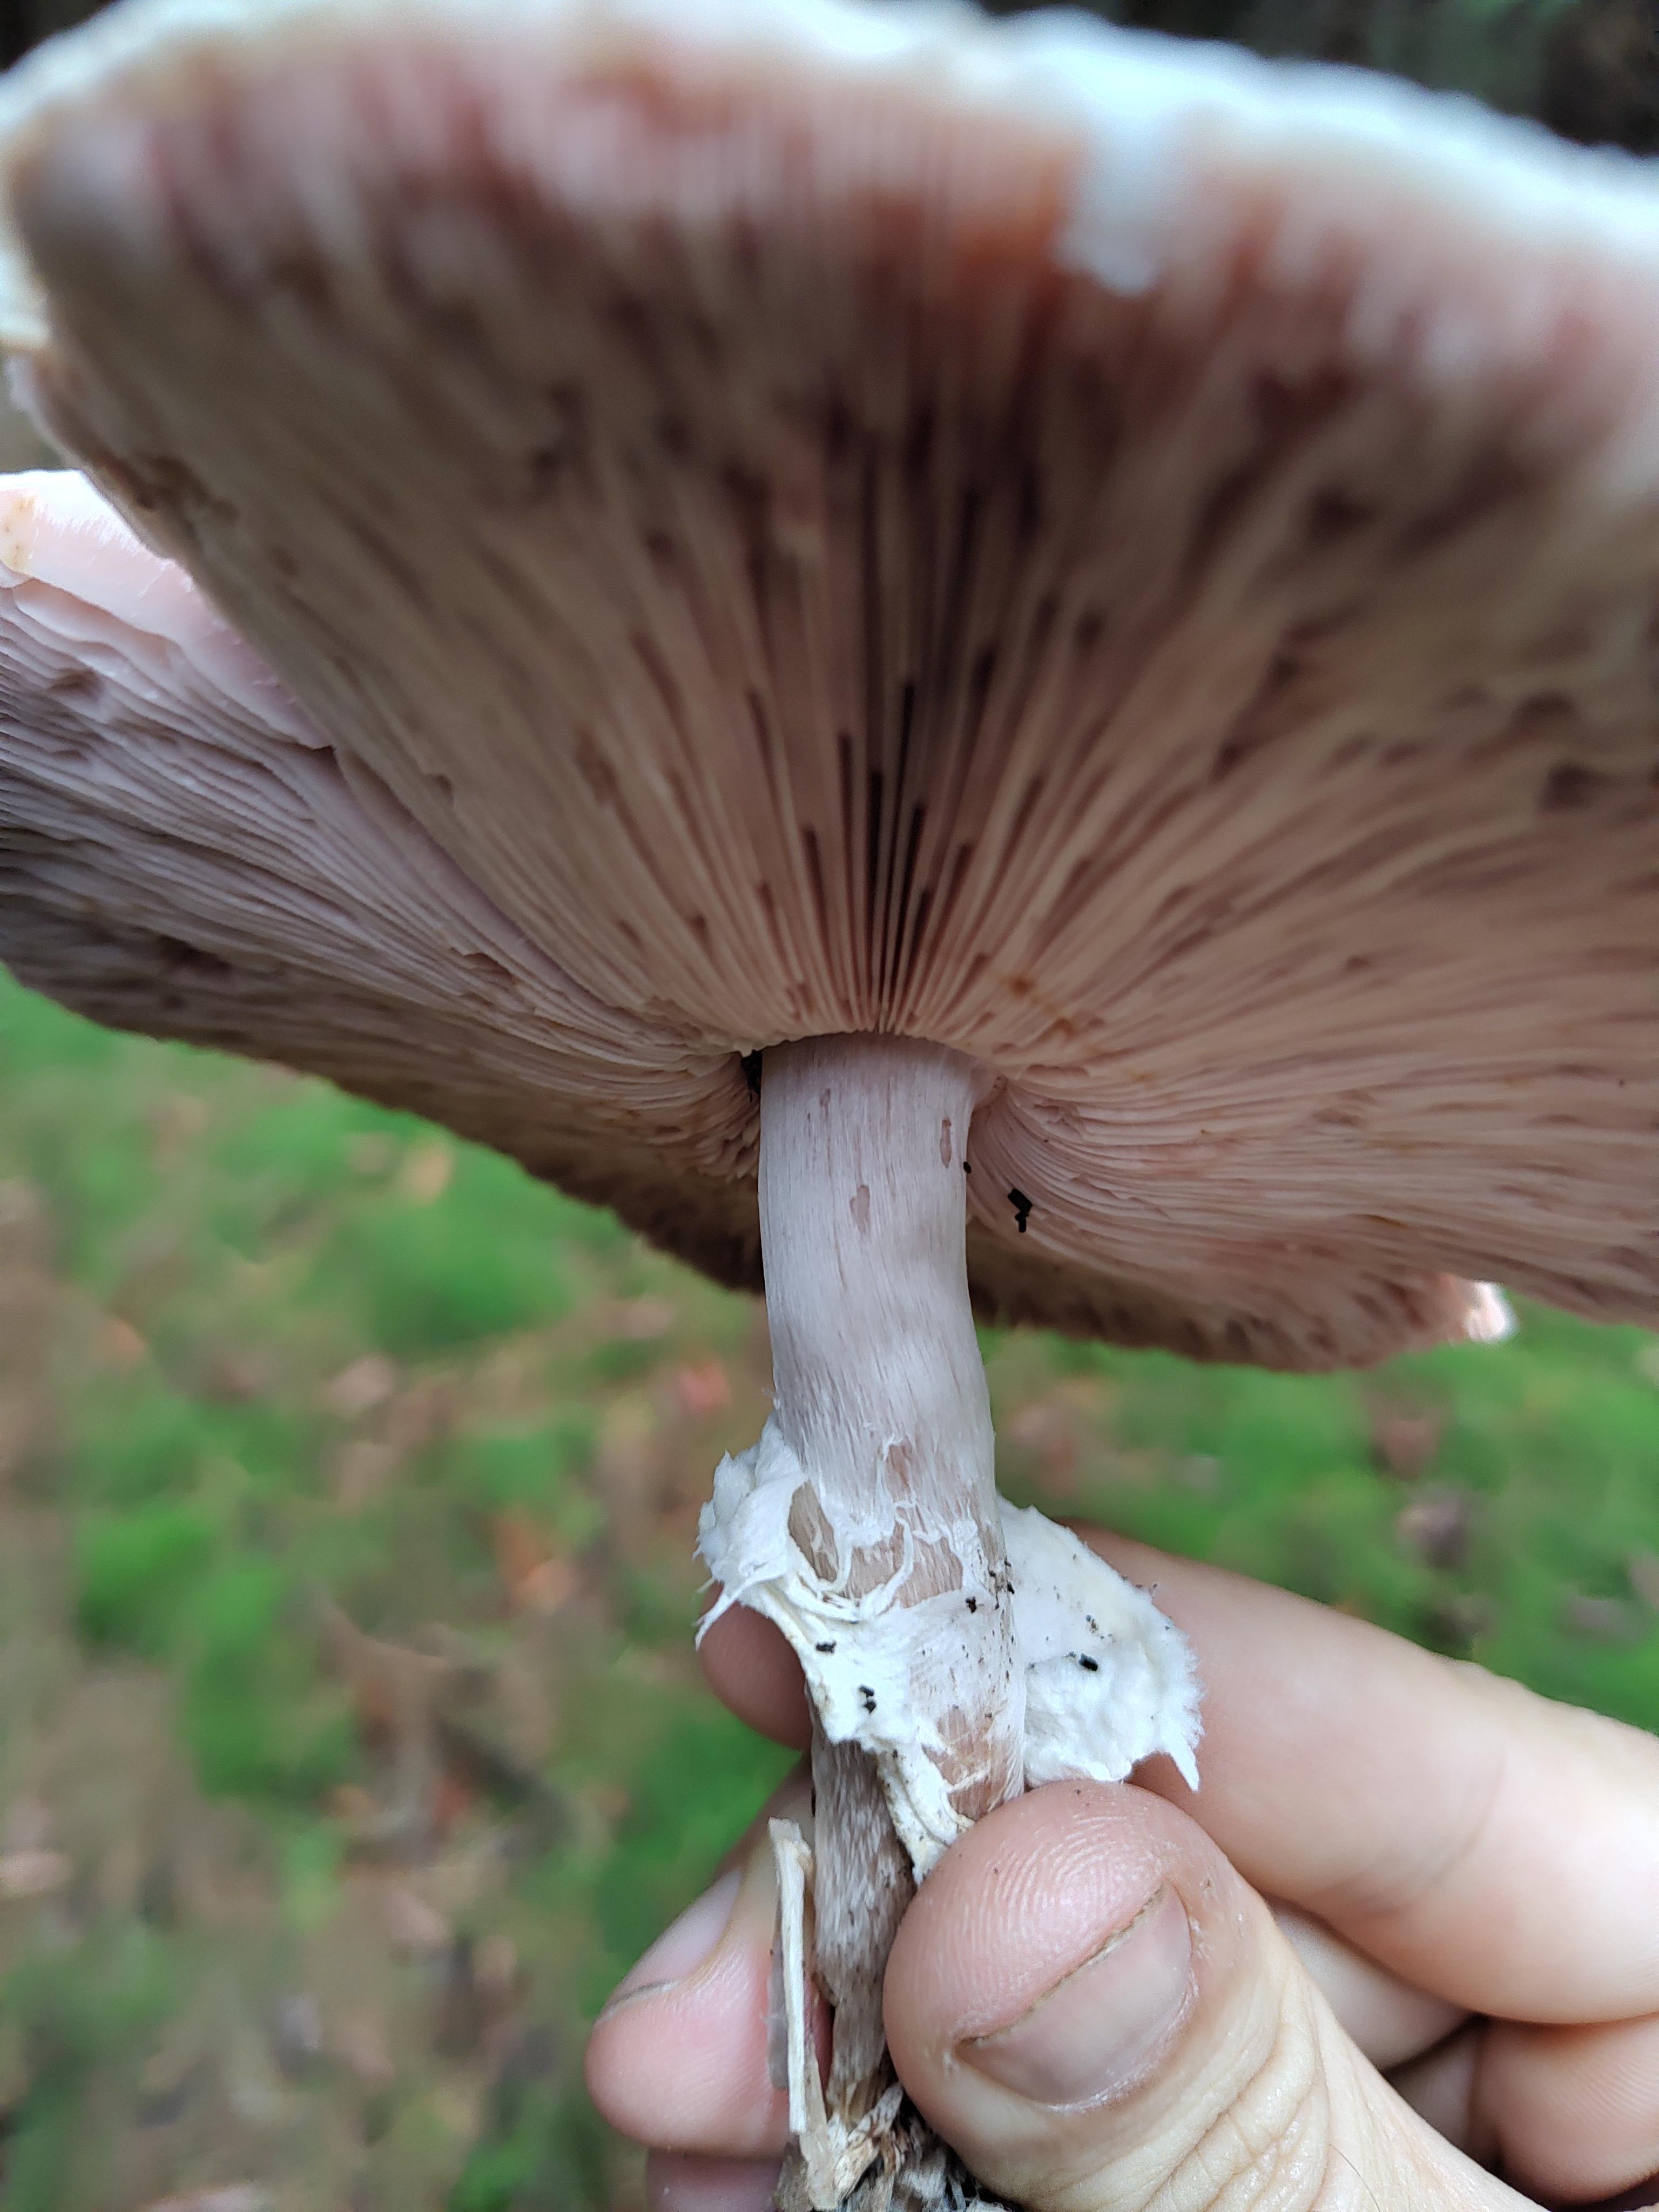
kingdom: Fungi
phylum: Basidiomycota
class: Agaricomycetes
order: Agaricales
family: Agaricaceae
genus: Agaricus
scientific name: Agaricus impudicus
